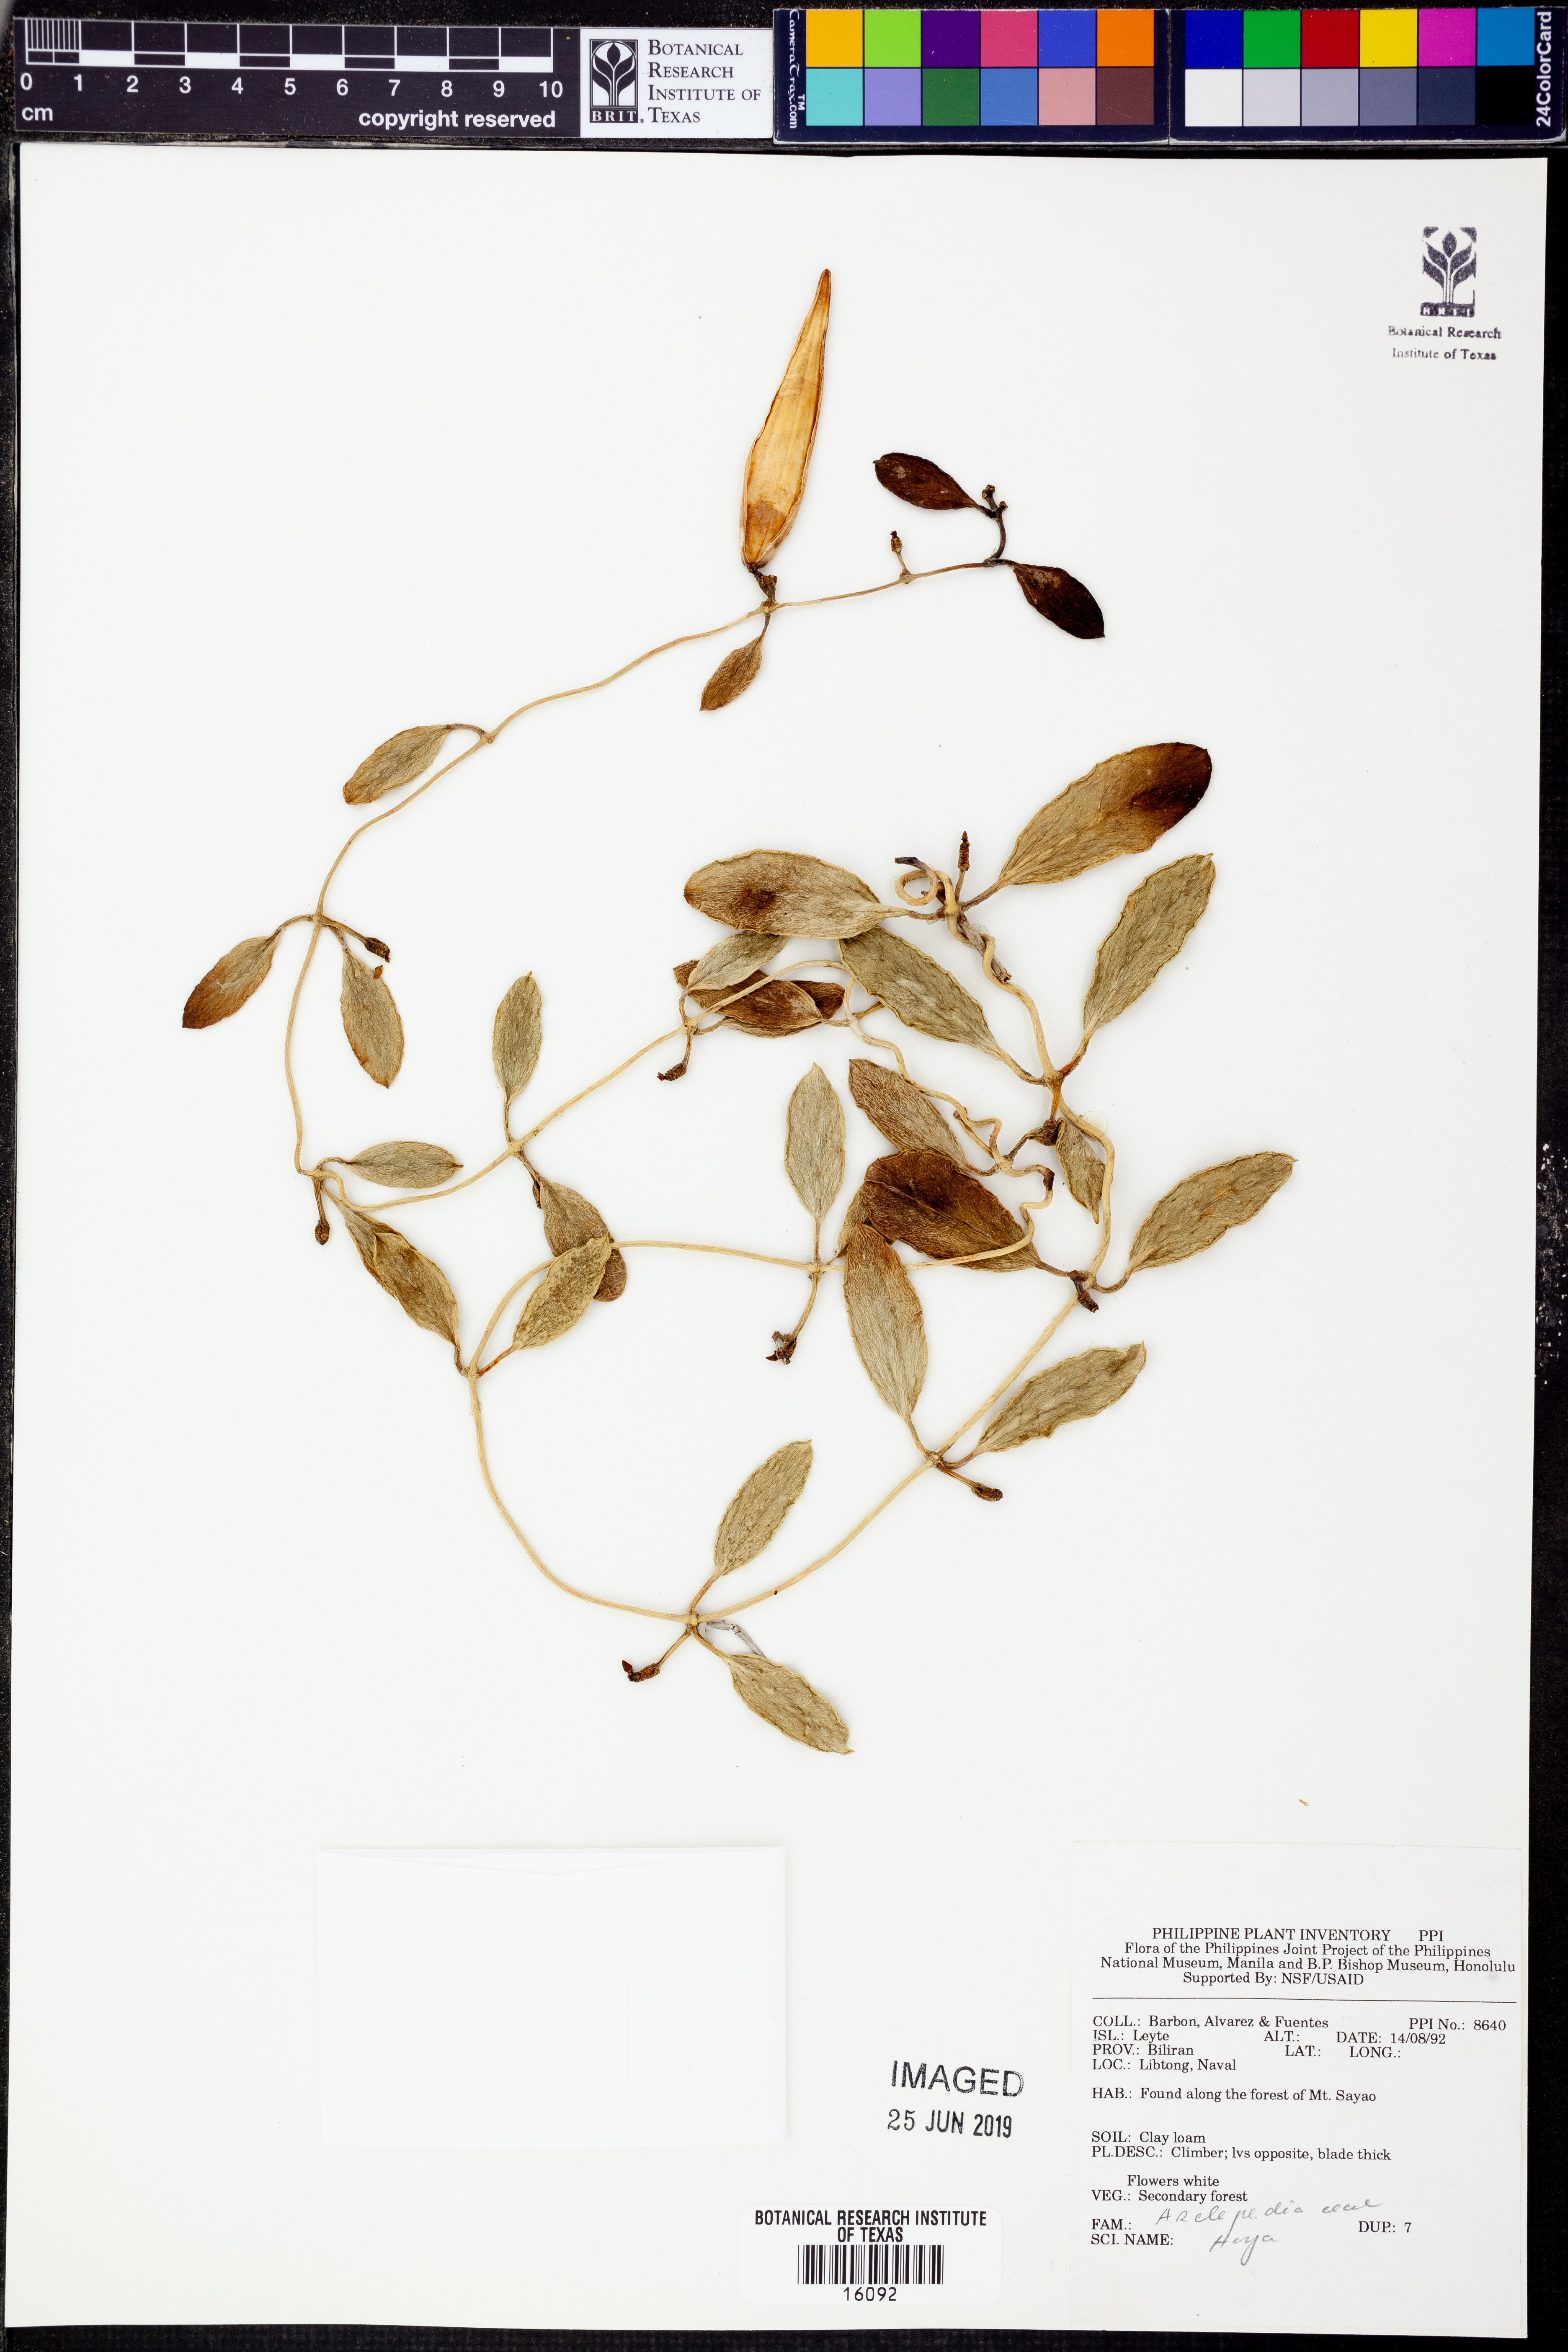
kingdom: Plantae
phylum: Tracheophyta
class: Magnoliopsida
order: Gentianales
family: Apocynaceae
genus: Hoya
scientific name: Hoya
